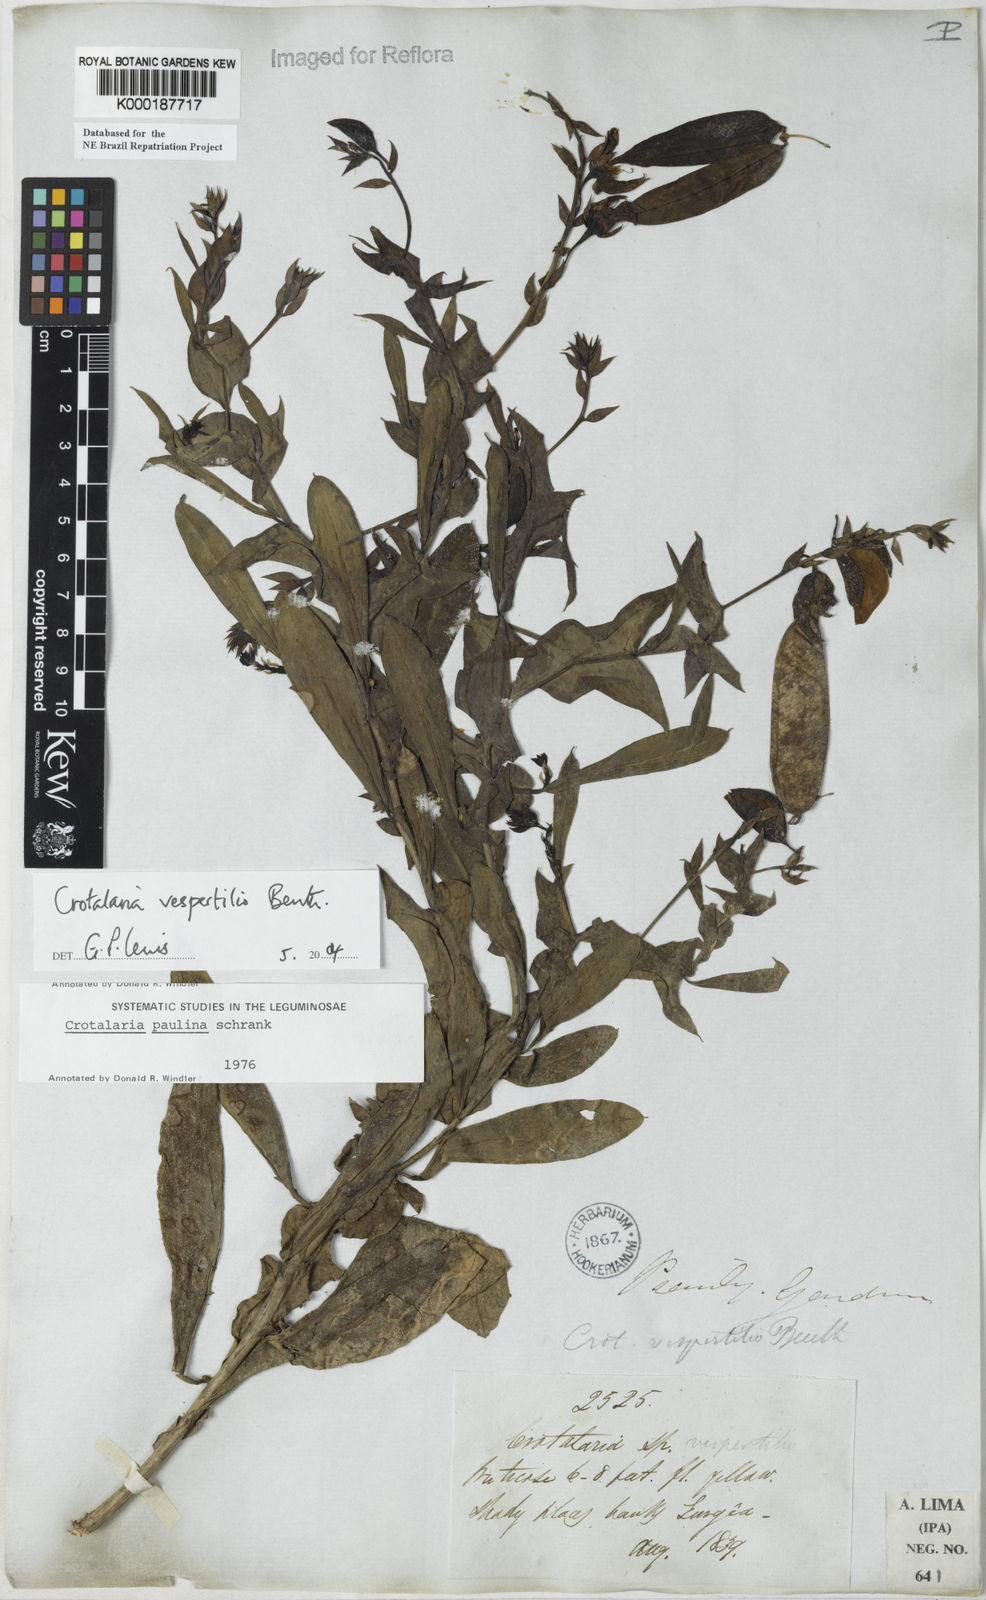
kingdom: Plantae
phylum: Tracheophyta
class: Magnoliopsida
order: Fabales
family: Fabaceae
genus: Crotalaria
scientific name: Crotalaria paulina
